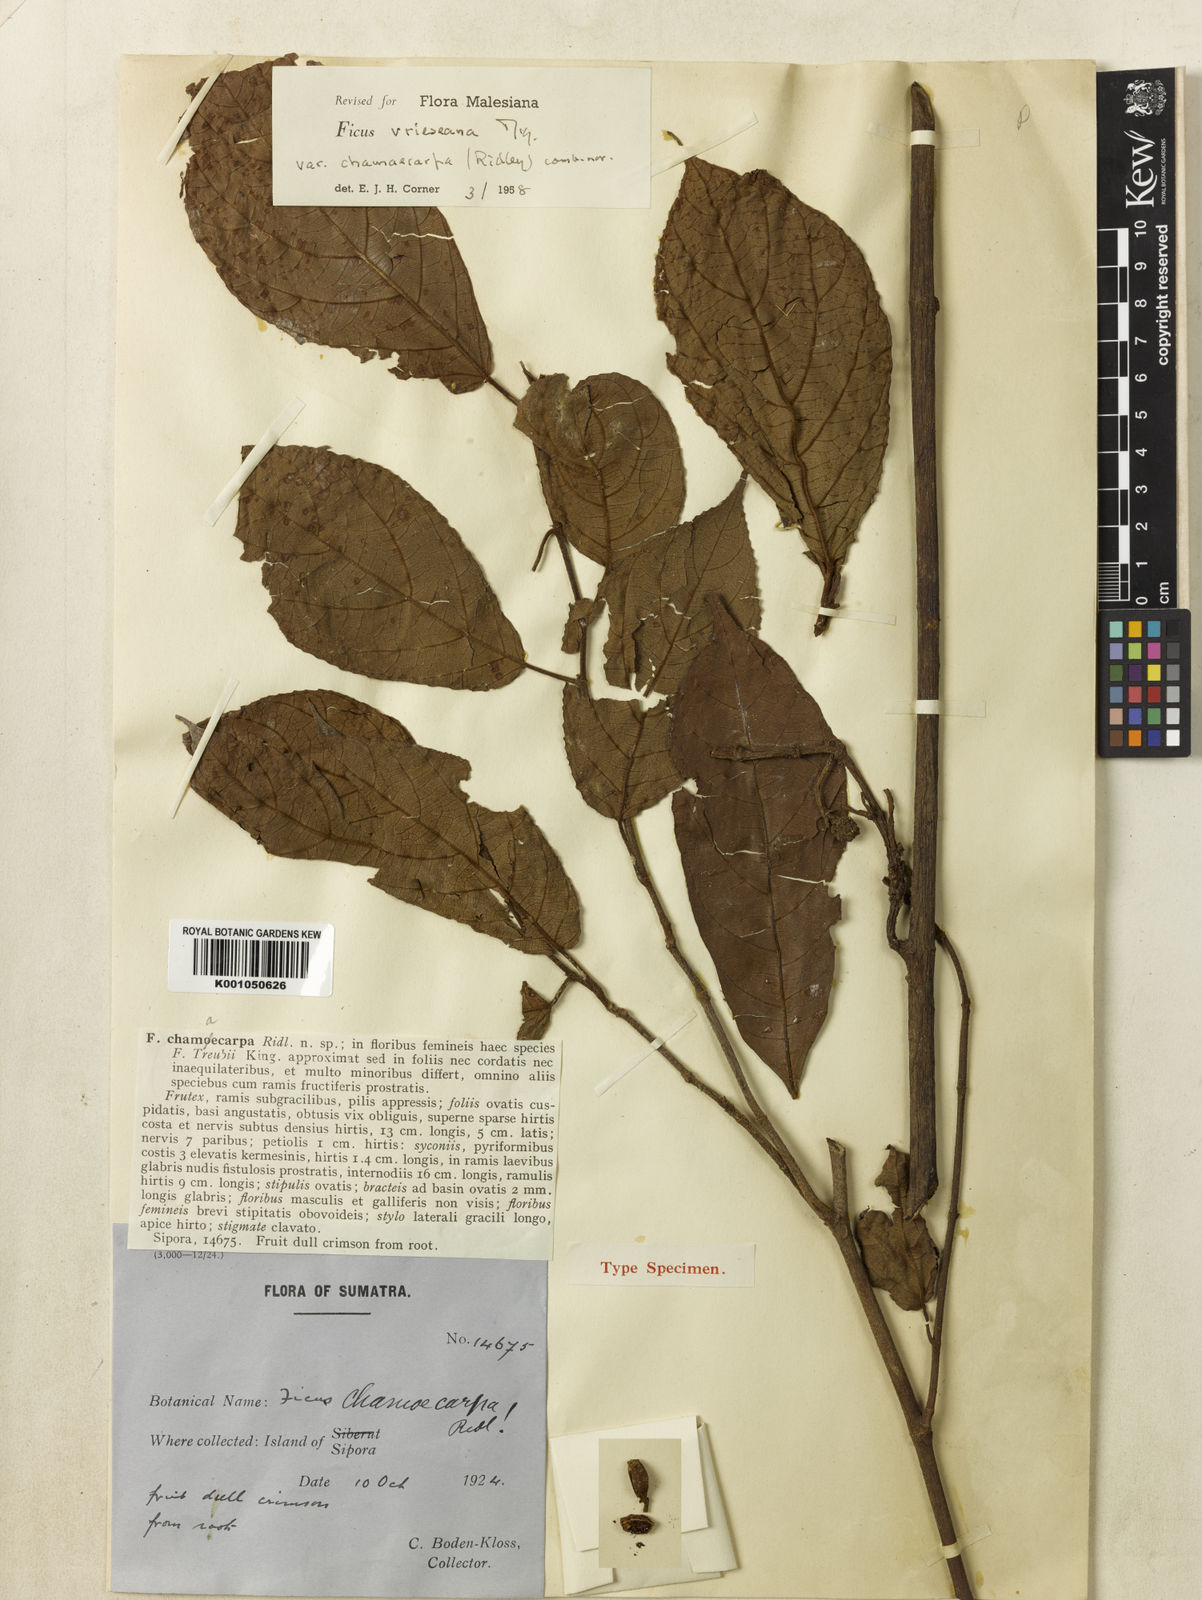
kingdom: Plantae
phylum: Tracheophyta
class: Magnoliopsida
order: Rosales
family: Moraceae
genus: Ficus
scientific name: Ficus vrieseana
